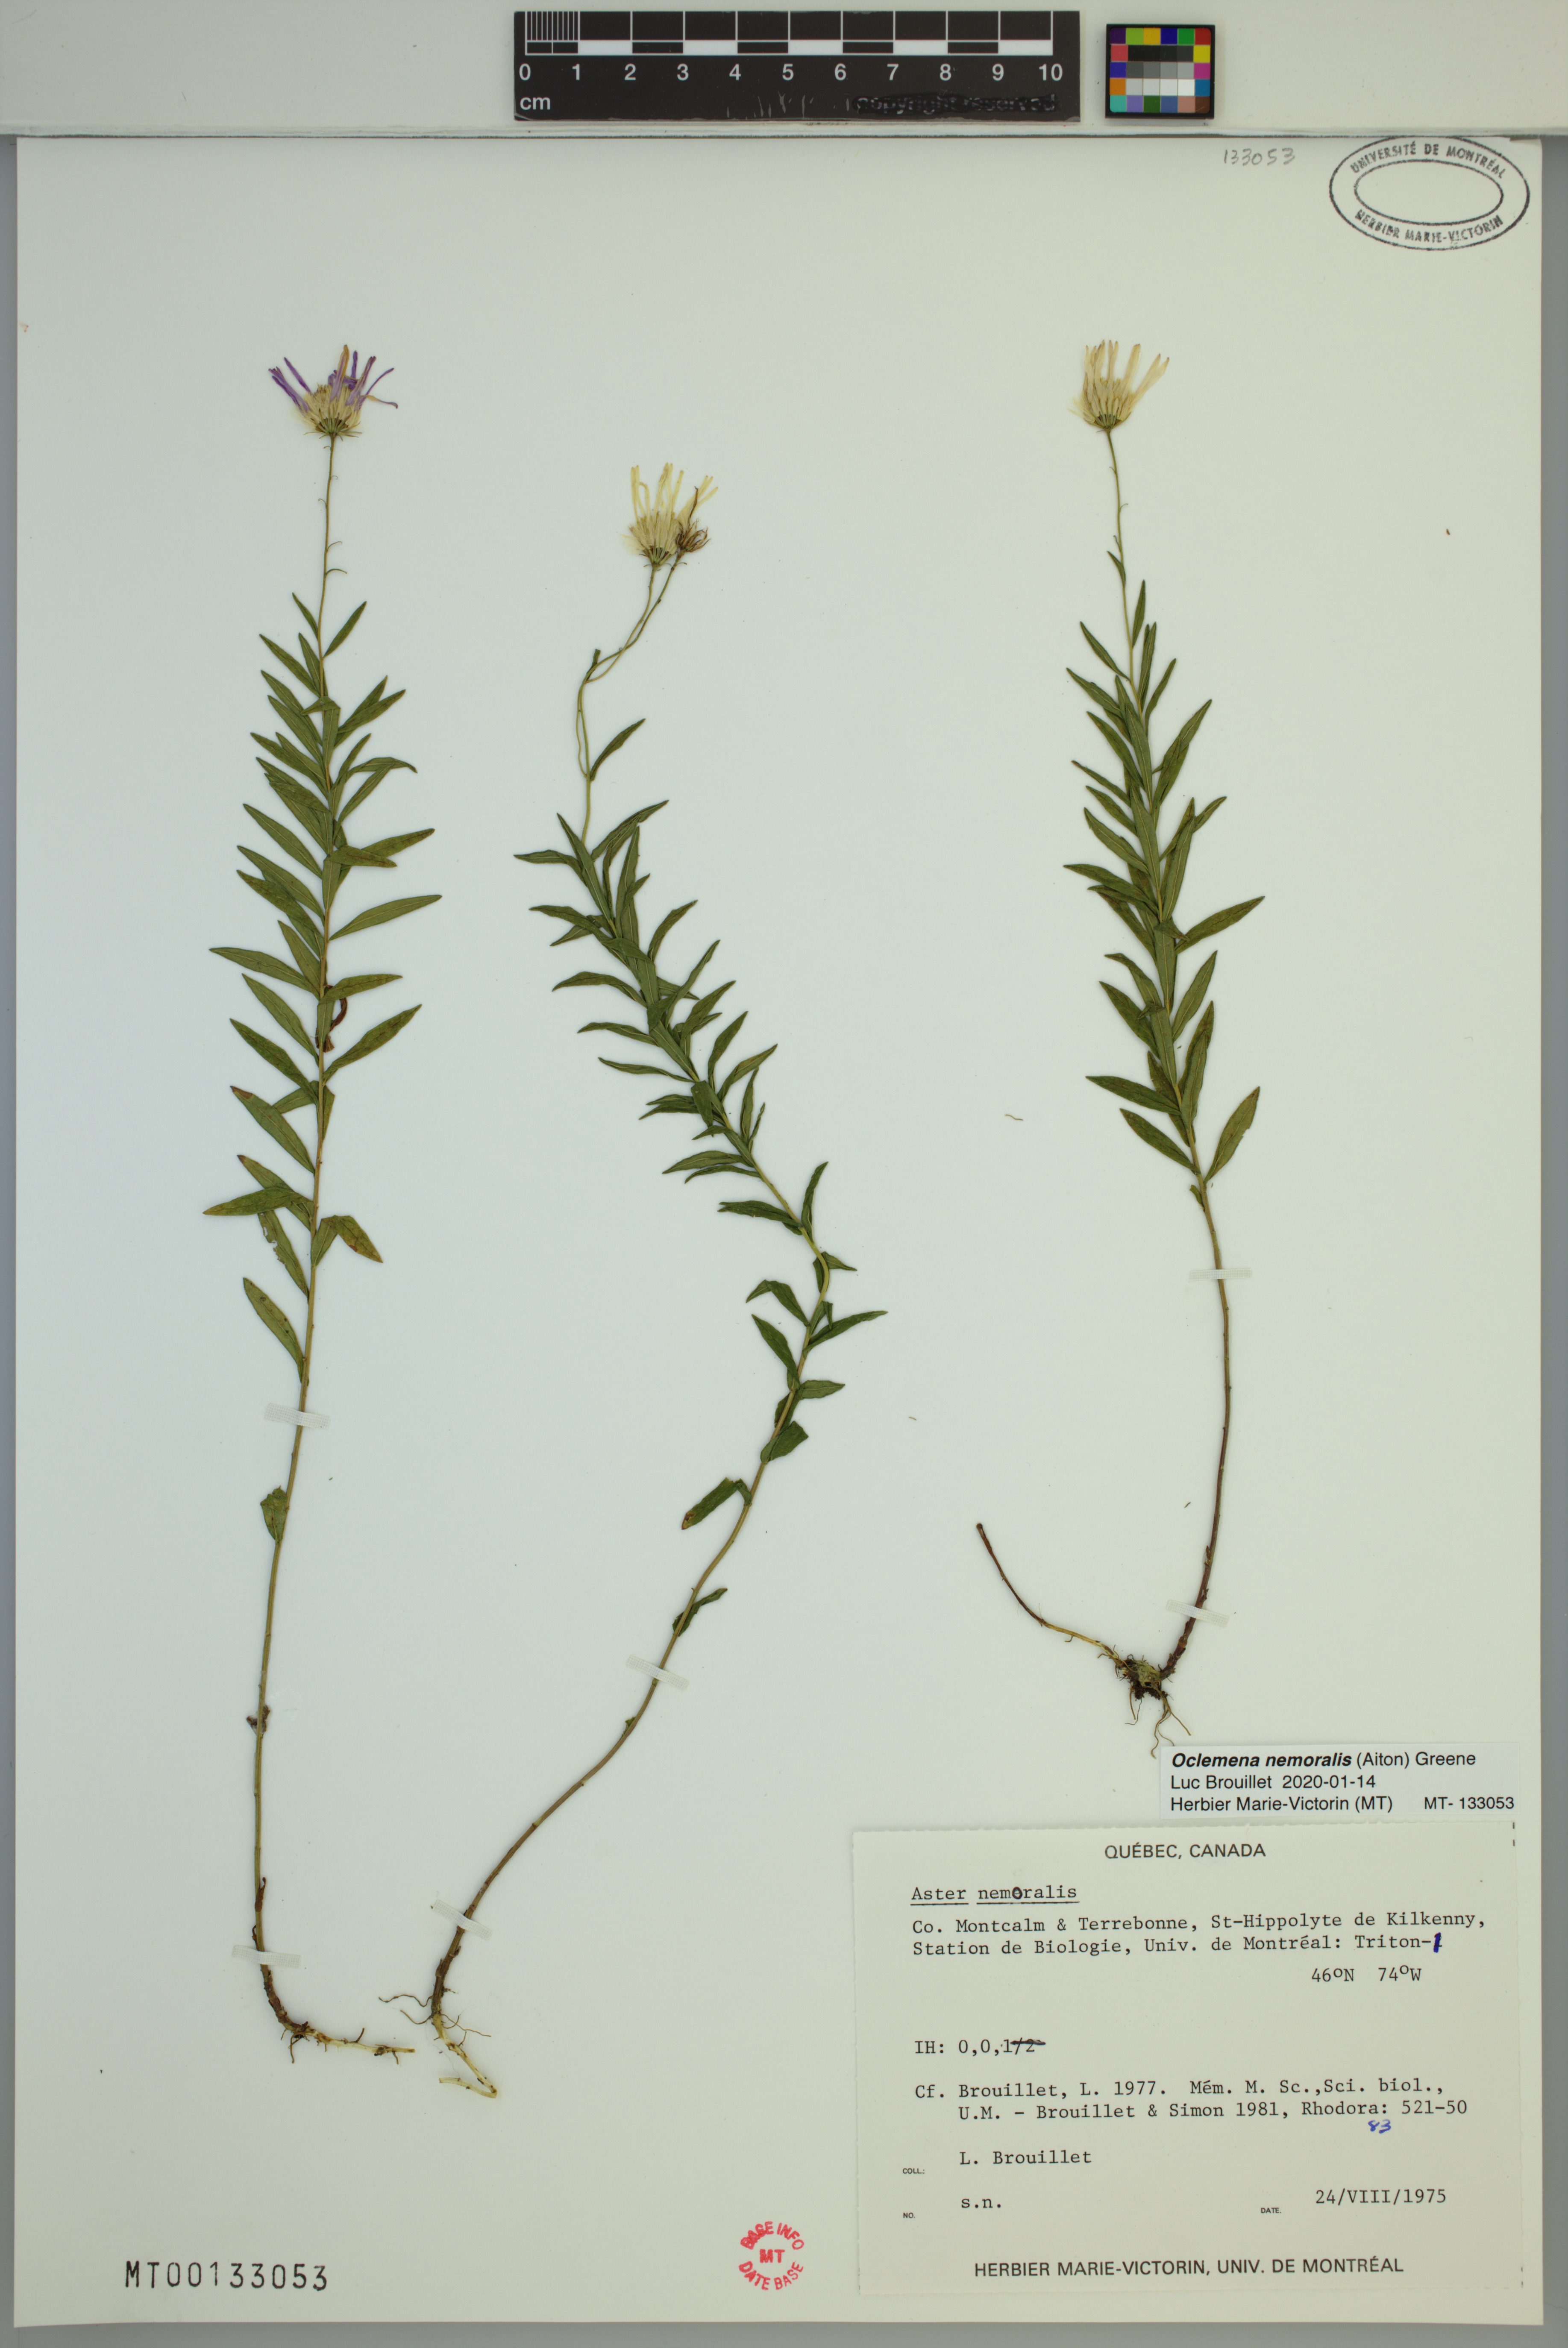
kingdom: Plantae
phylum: Tracheophyta
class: Magnoliopsida
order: Asterales
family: Asteraceae
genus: Oclemena
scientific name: Oclemena nemoralis
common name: Bog aster
